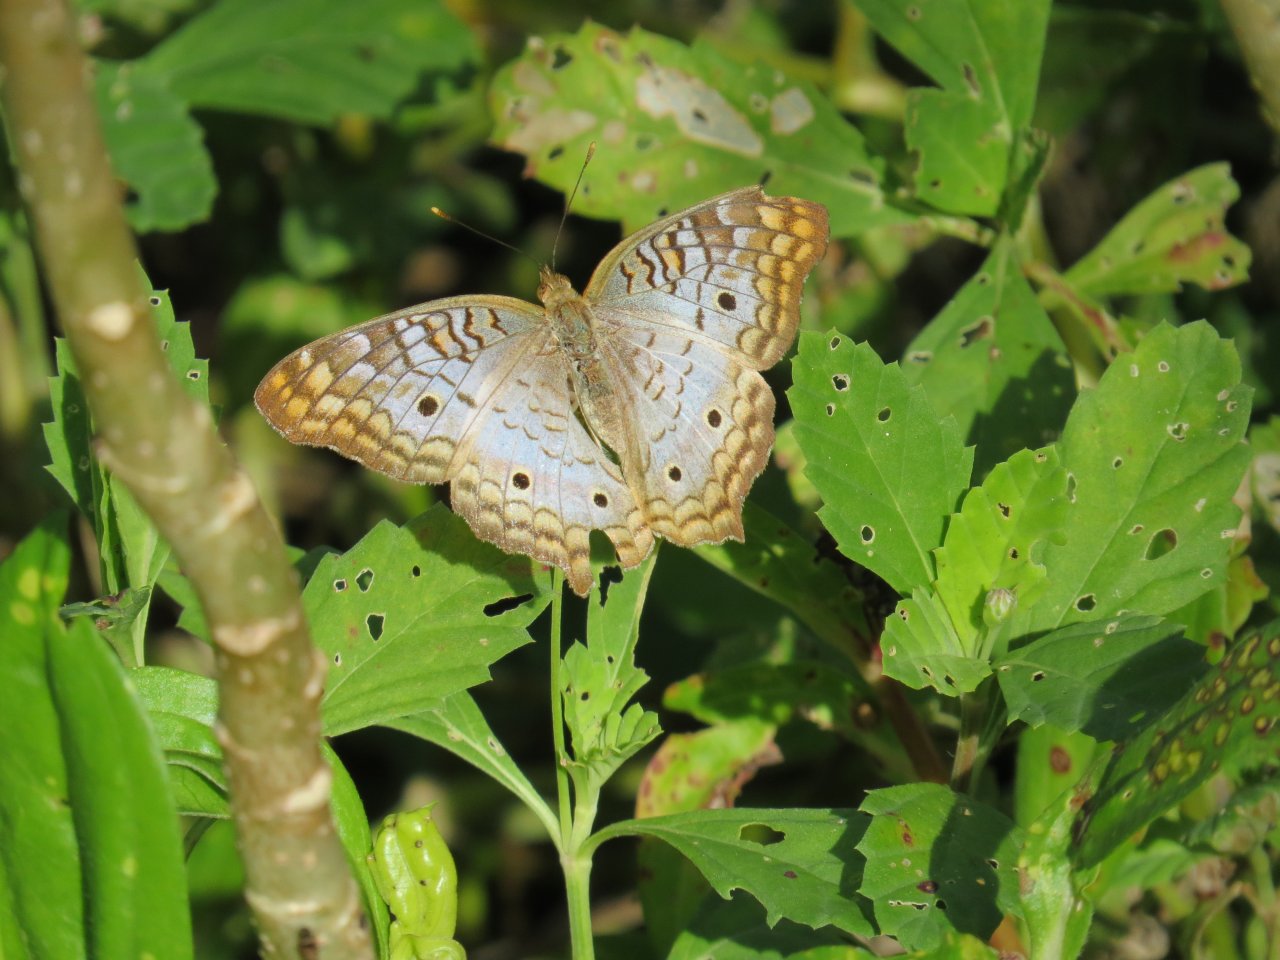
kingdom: Animalia
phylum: Arthropoda
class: Insecta
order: Lepidoptera
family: Nymphalidae
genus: Anartia
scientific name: Anartia jatrophae
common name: White Peacock
